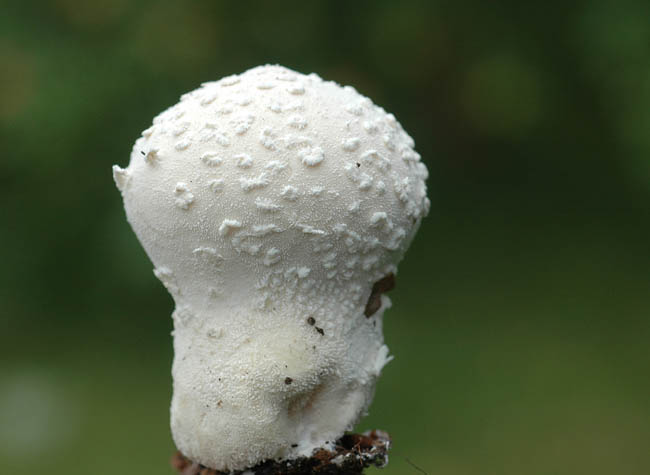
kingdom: Fungi
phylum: Basidiomycota
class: Agaricomycetes
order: Agaricales
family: Lycoperdaceae
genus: Lycoperdon
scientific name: Lycoperdon mammiforme
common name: rosa støvbold
